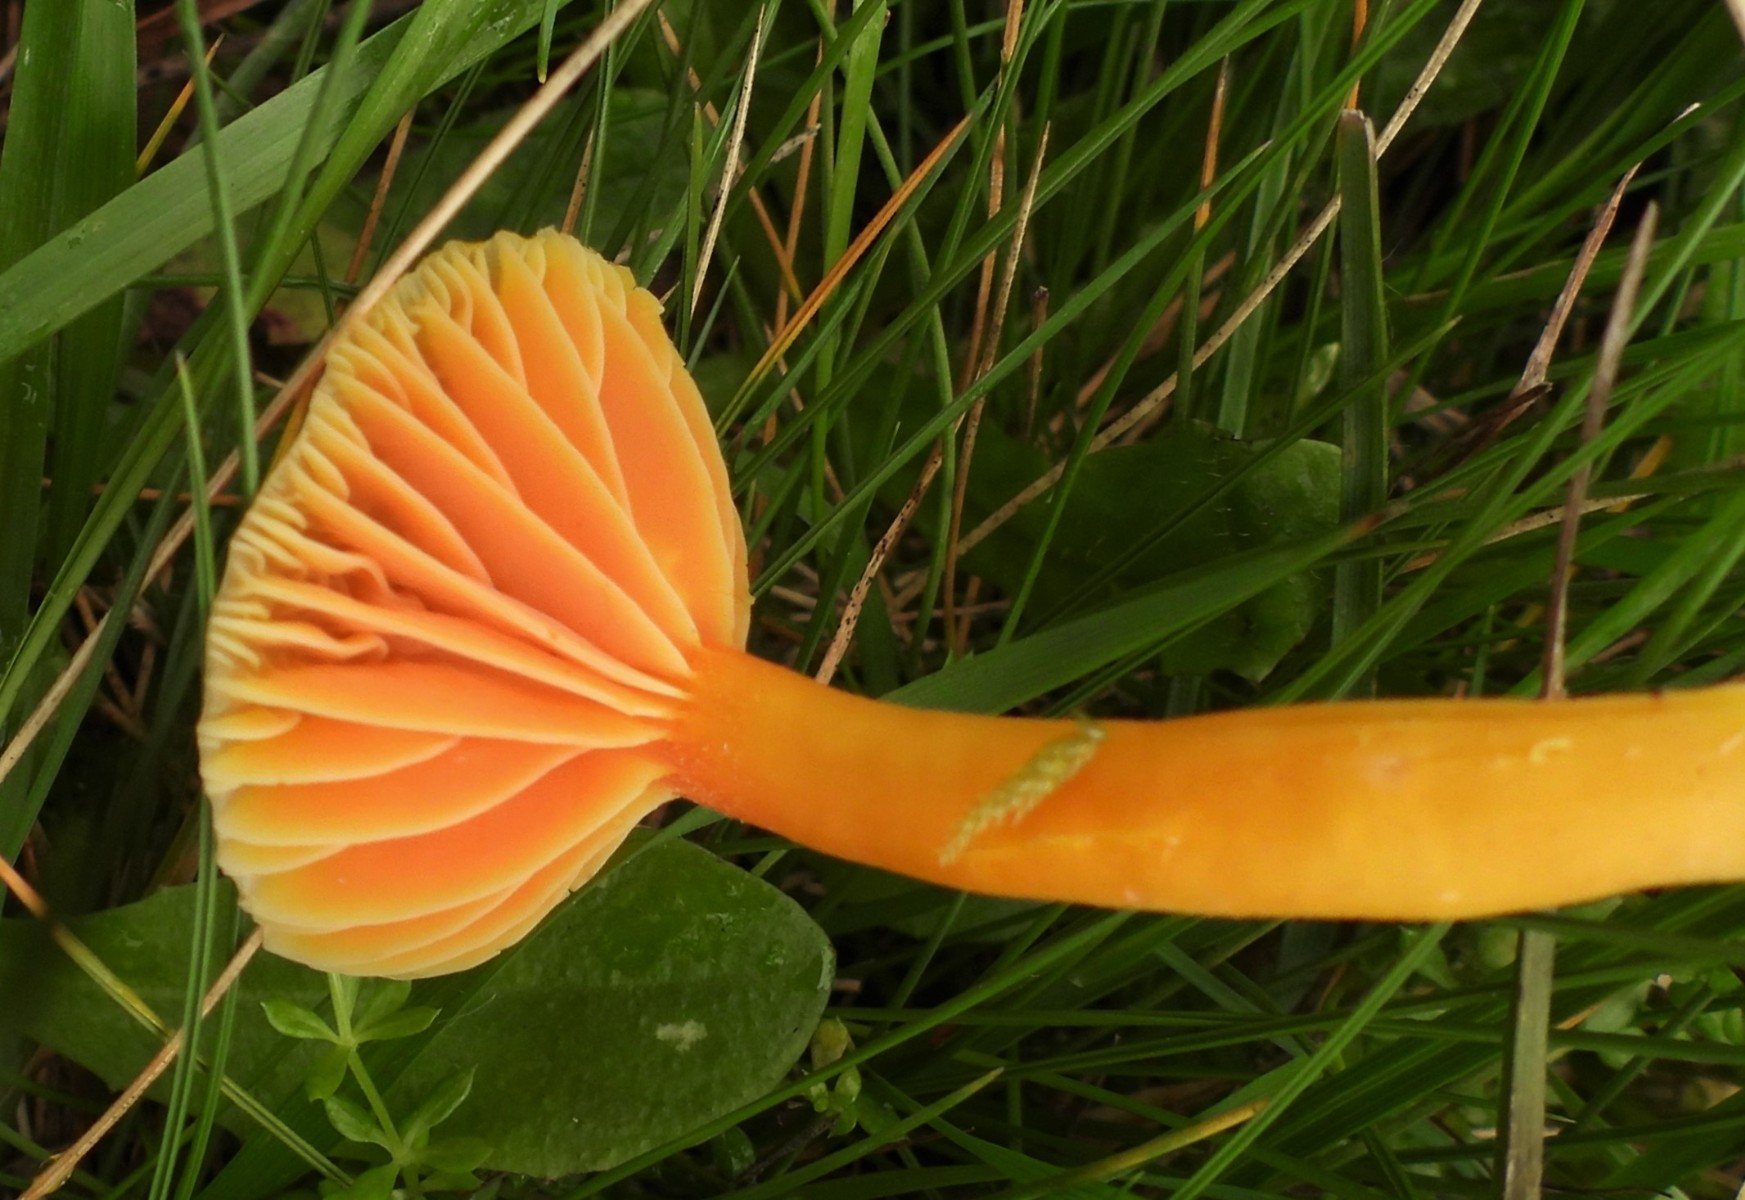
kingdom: Fungi
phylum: Basidiomycota
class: Agaricomycetes
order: Agaricales
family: Hygrophoraceae
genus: Hygrocybe
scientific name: Hygrocybe reidii
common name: honning-vokshat
